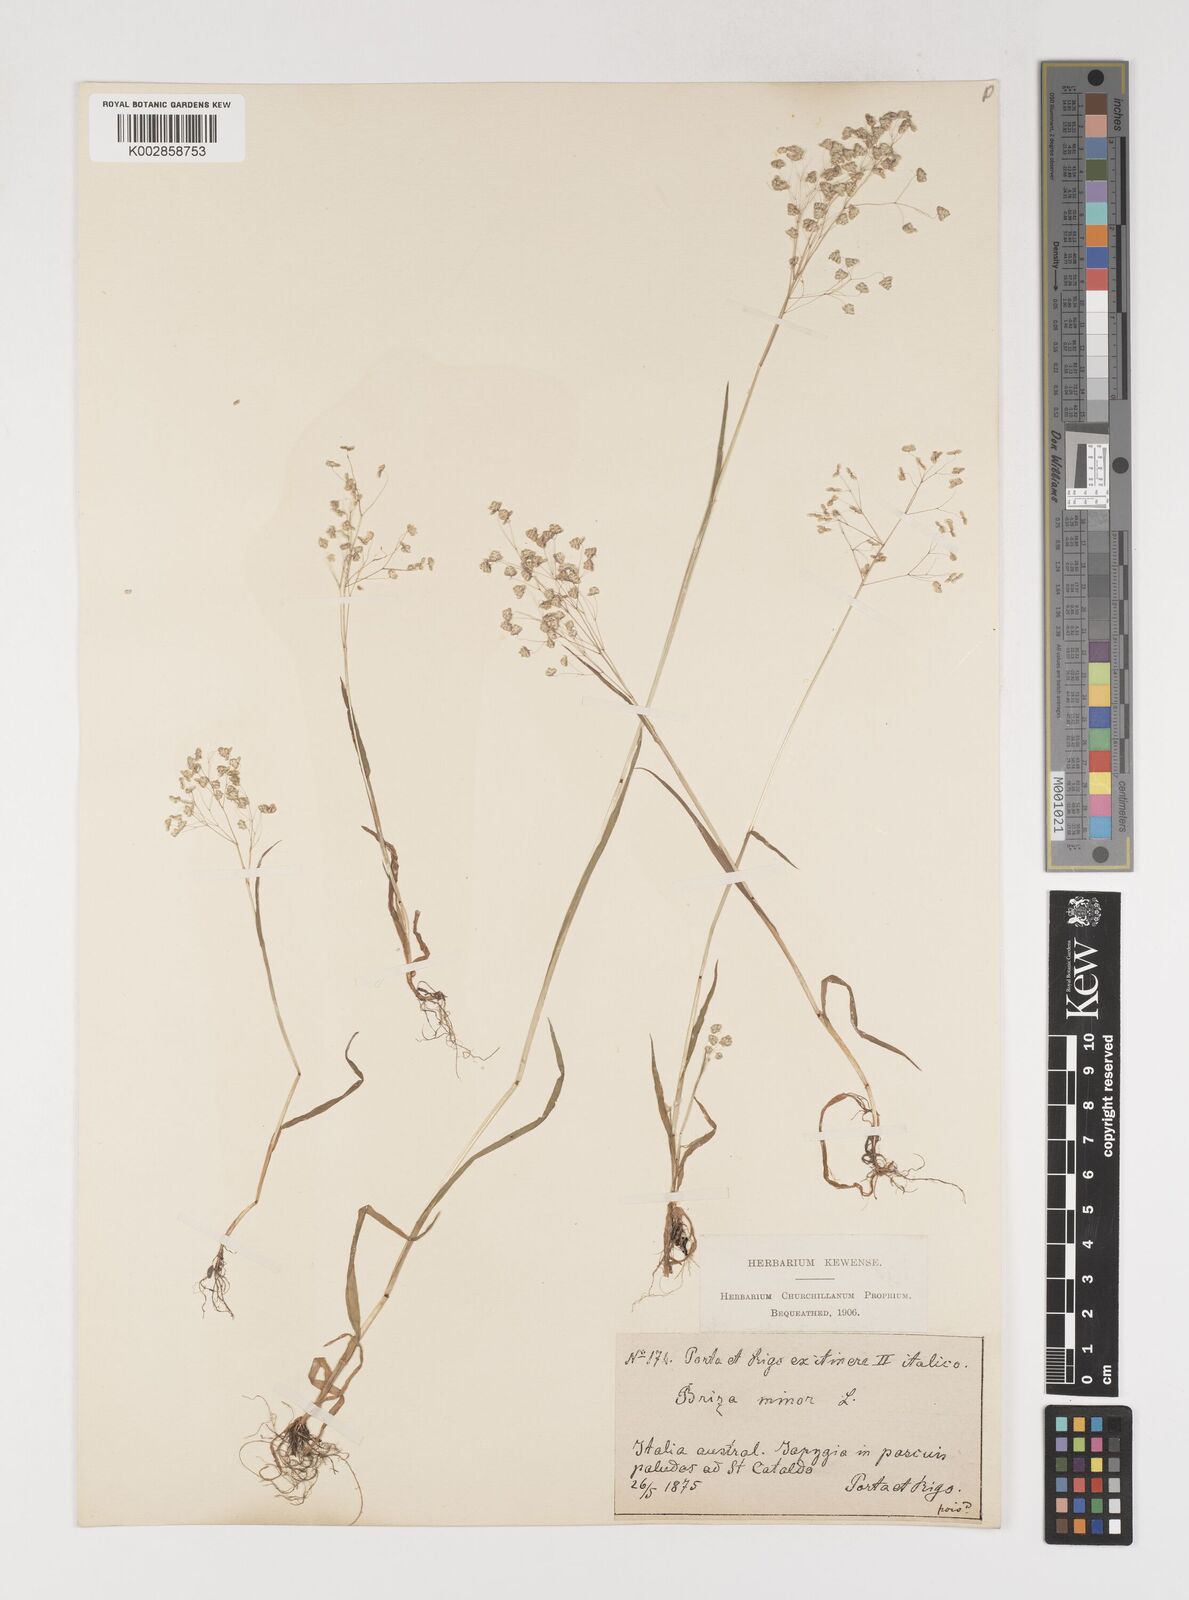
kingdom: Plantae
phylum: Tracheophyta
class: Liliopsida
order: Poales
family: Poaceae
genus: Briza
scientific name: Briza minor
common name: Lesser quaking-grass
